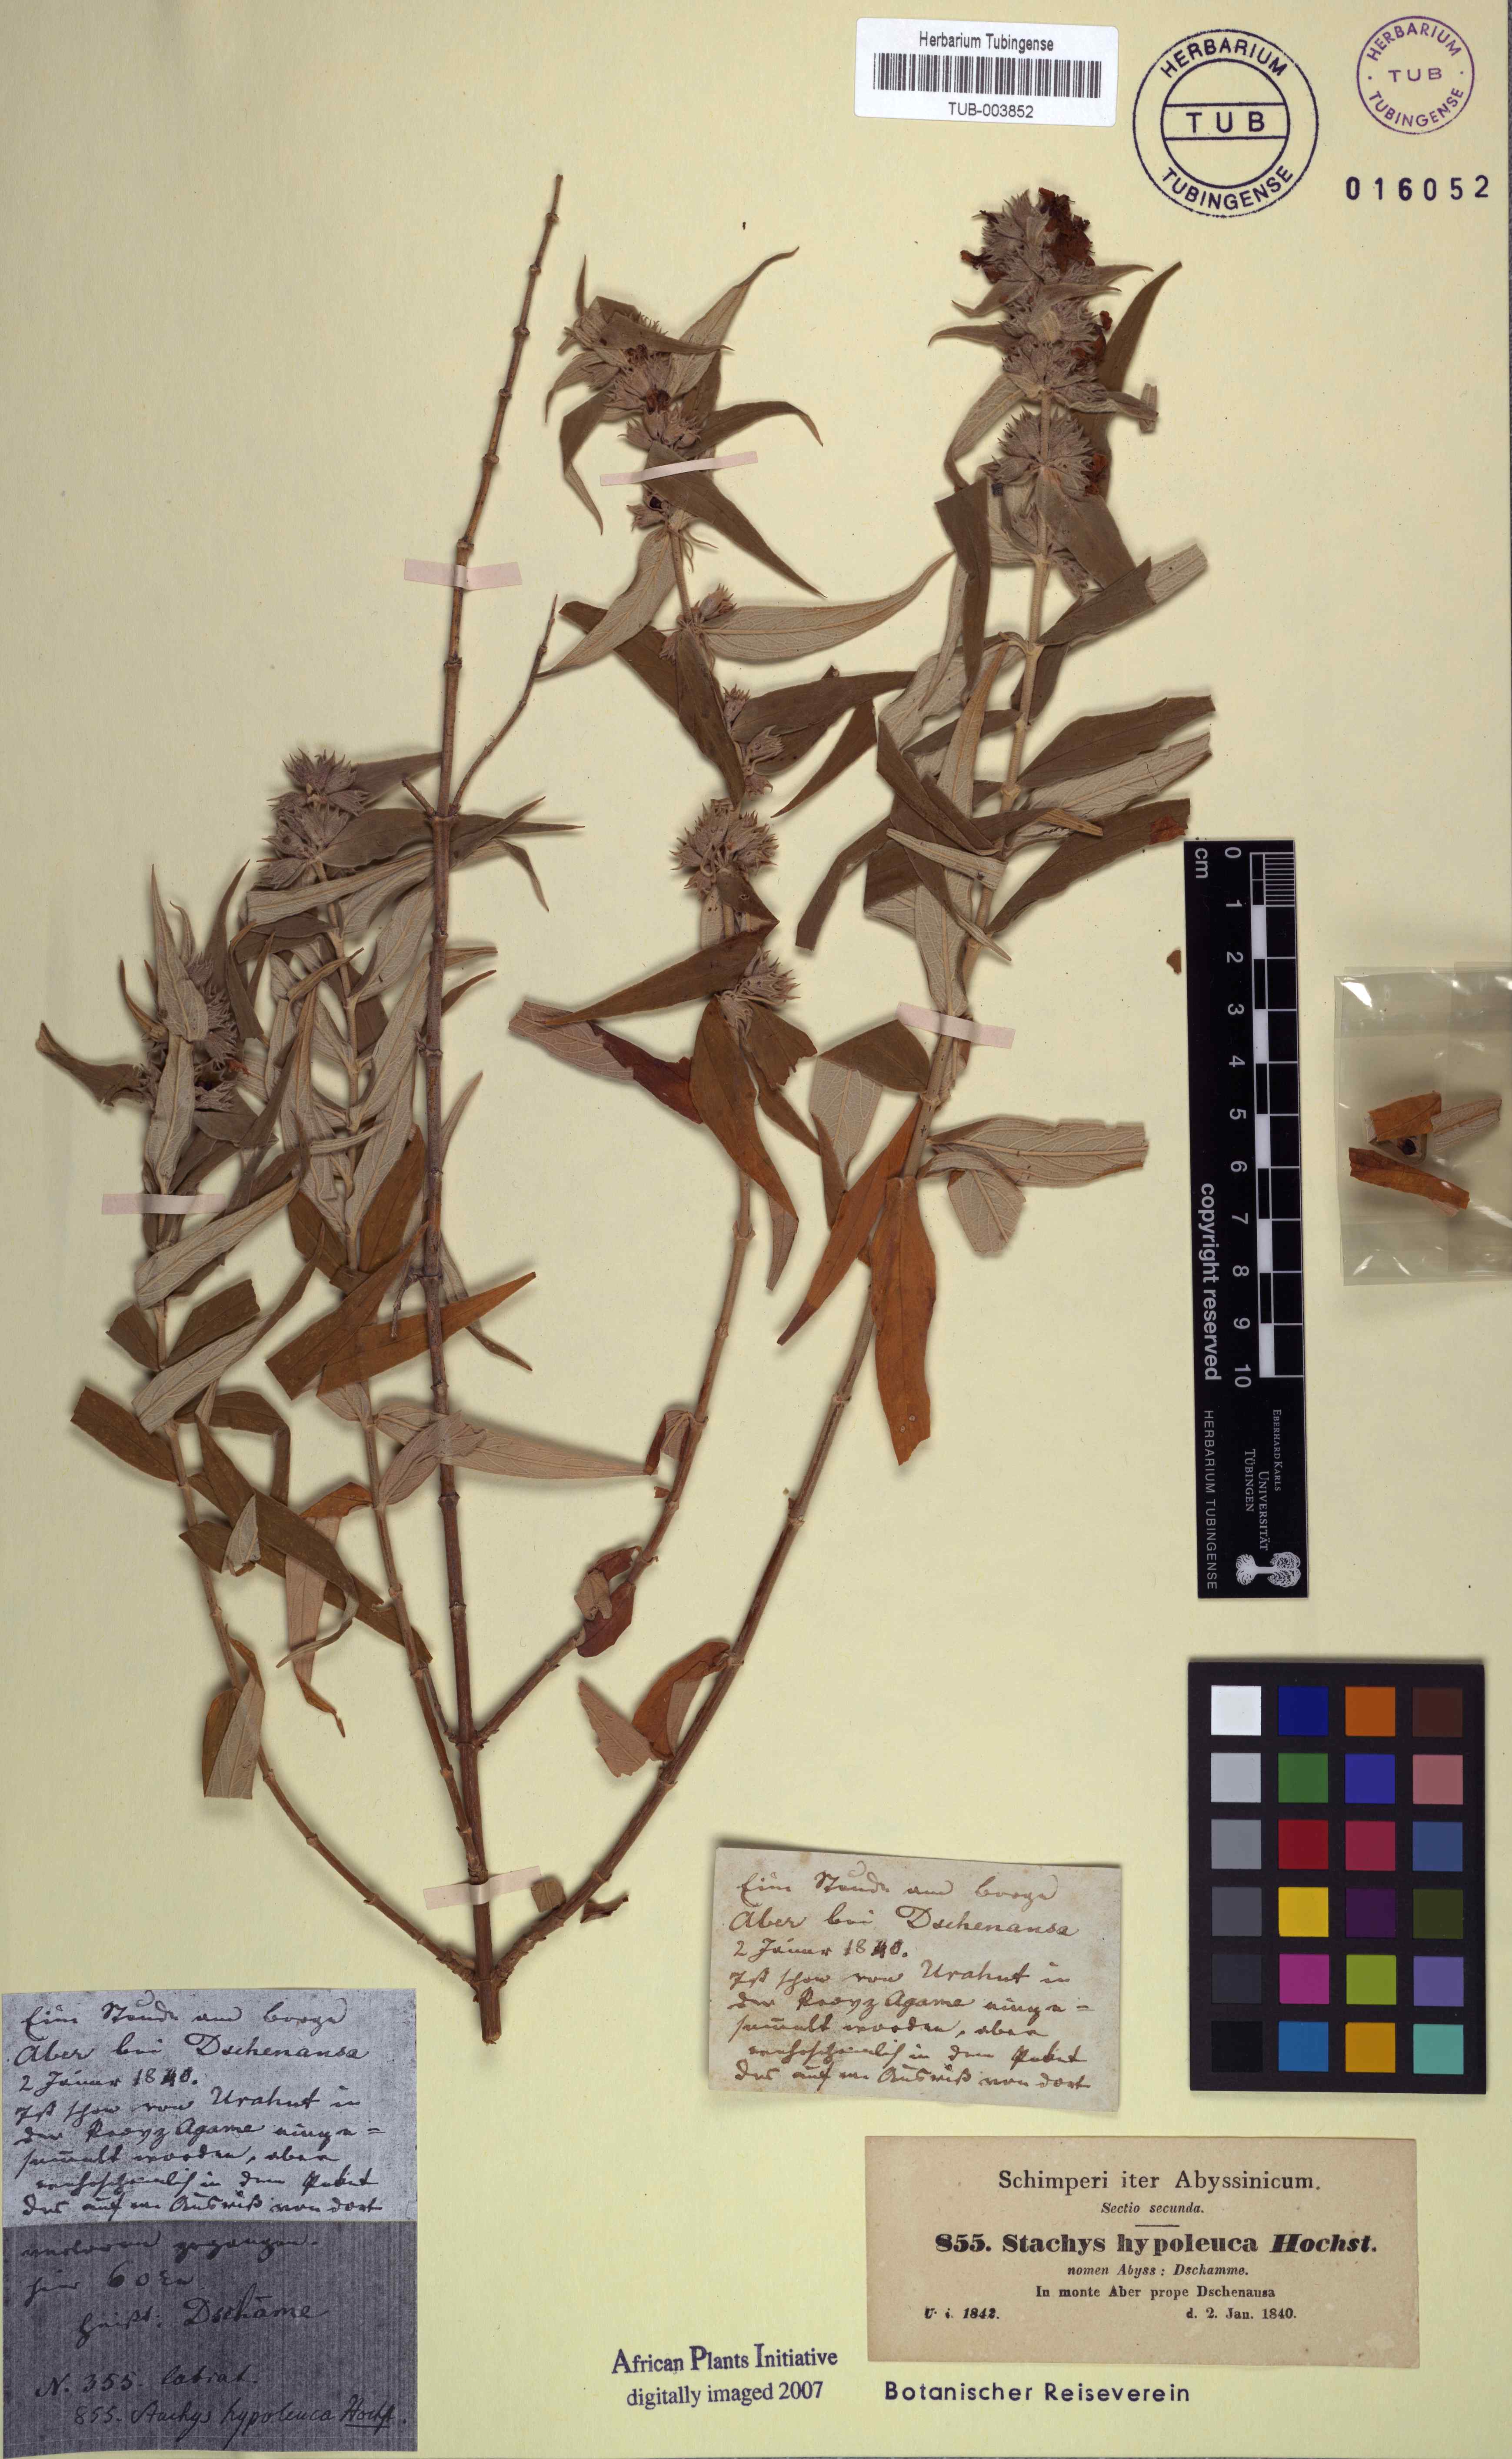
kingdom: Plantae
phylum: Tracheophyta
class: Magnoliopsida
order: Lamiales
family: Lamiaceae
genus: Stachys
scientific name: Stachys palaestina
